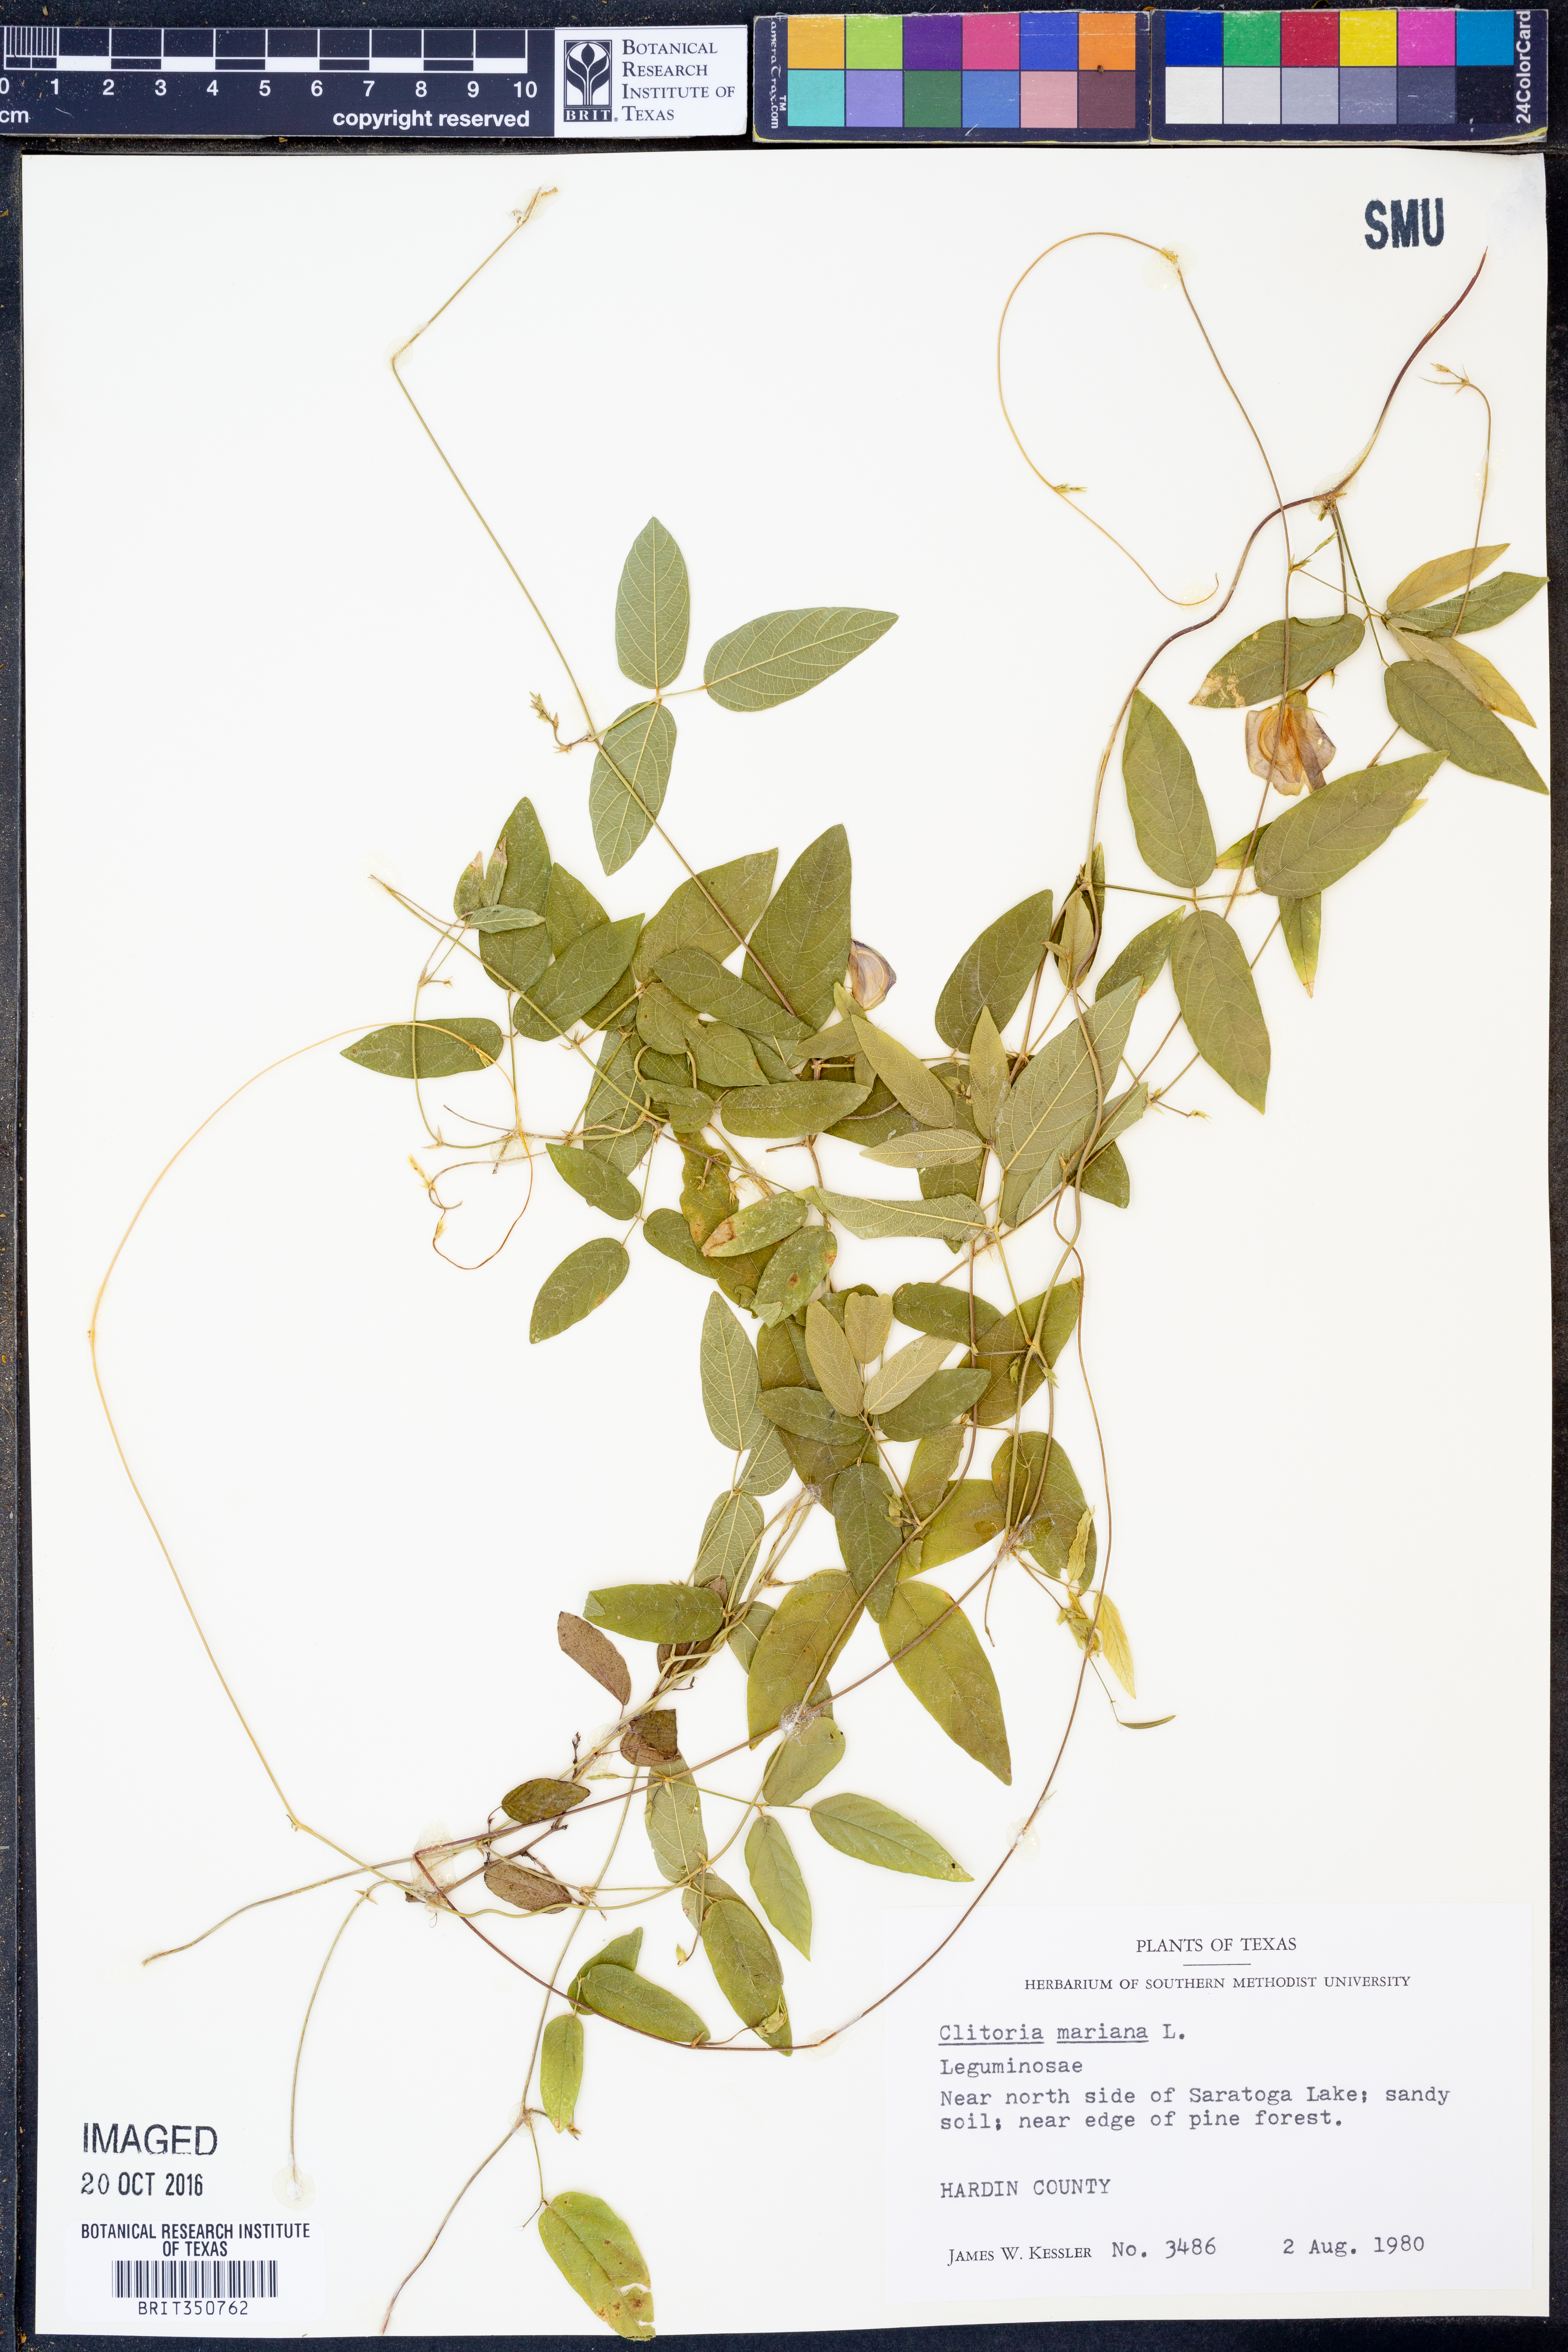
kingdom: Plantae
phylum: Tracheophyta
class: Magnoliopsida
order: Fabales
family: Fabaceae
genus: Clitoria
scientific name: Clitoria mariana
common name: Butterfly-pea
